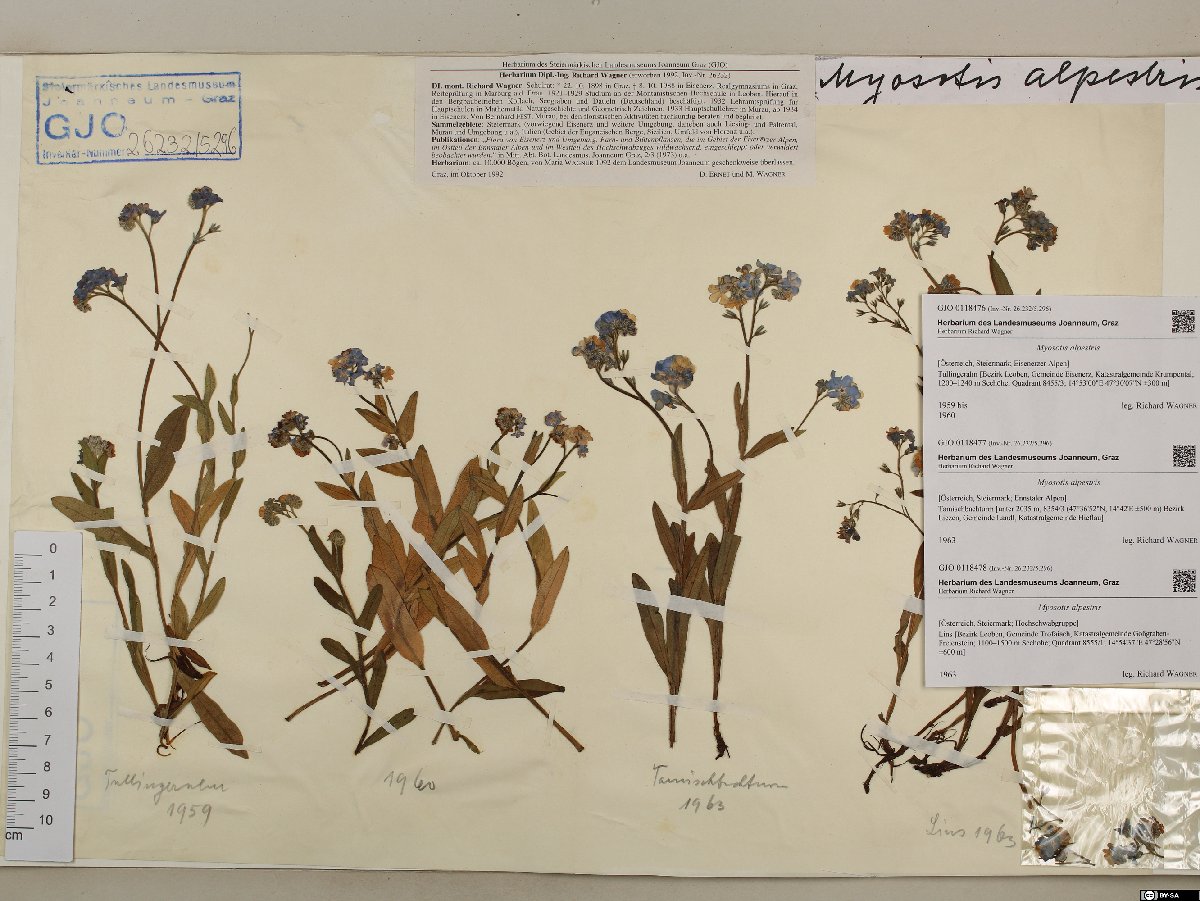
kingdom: Plantae
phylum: Tracheophyta
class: Magnoliopsida
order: Boraginales
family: Boraginaceae
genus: Myosotis
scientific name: Myosotis alpestris
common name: Alpine forget-me-not
